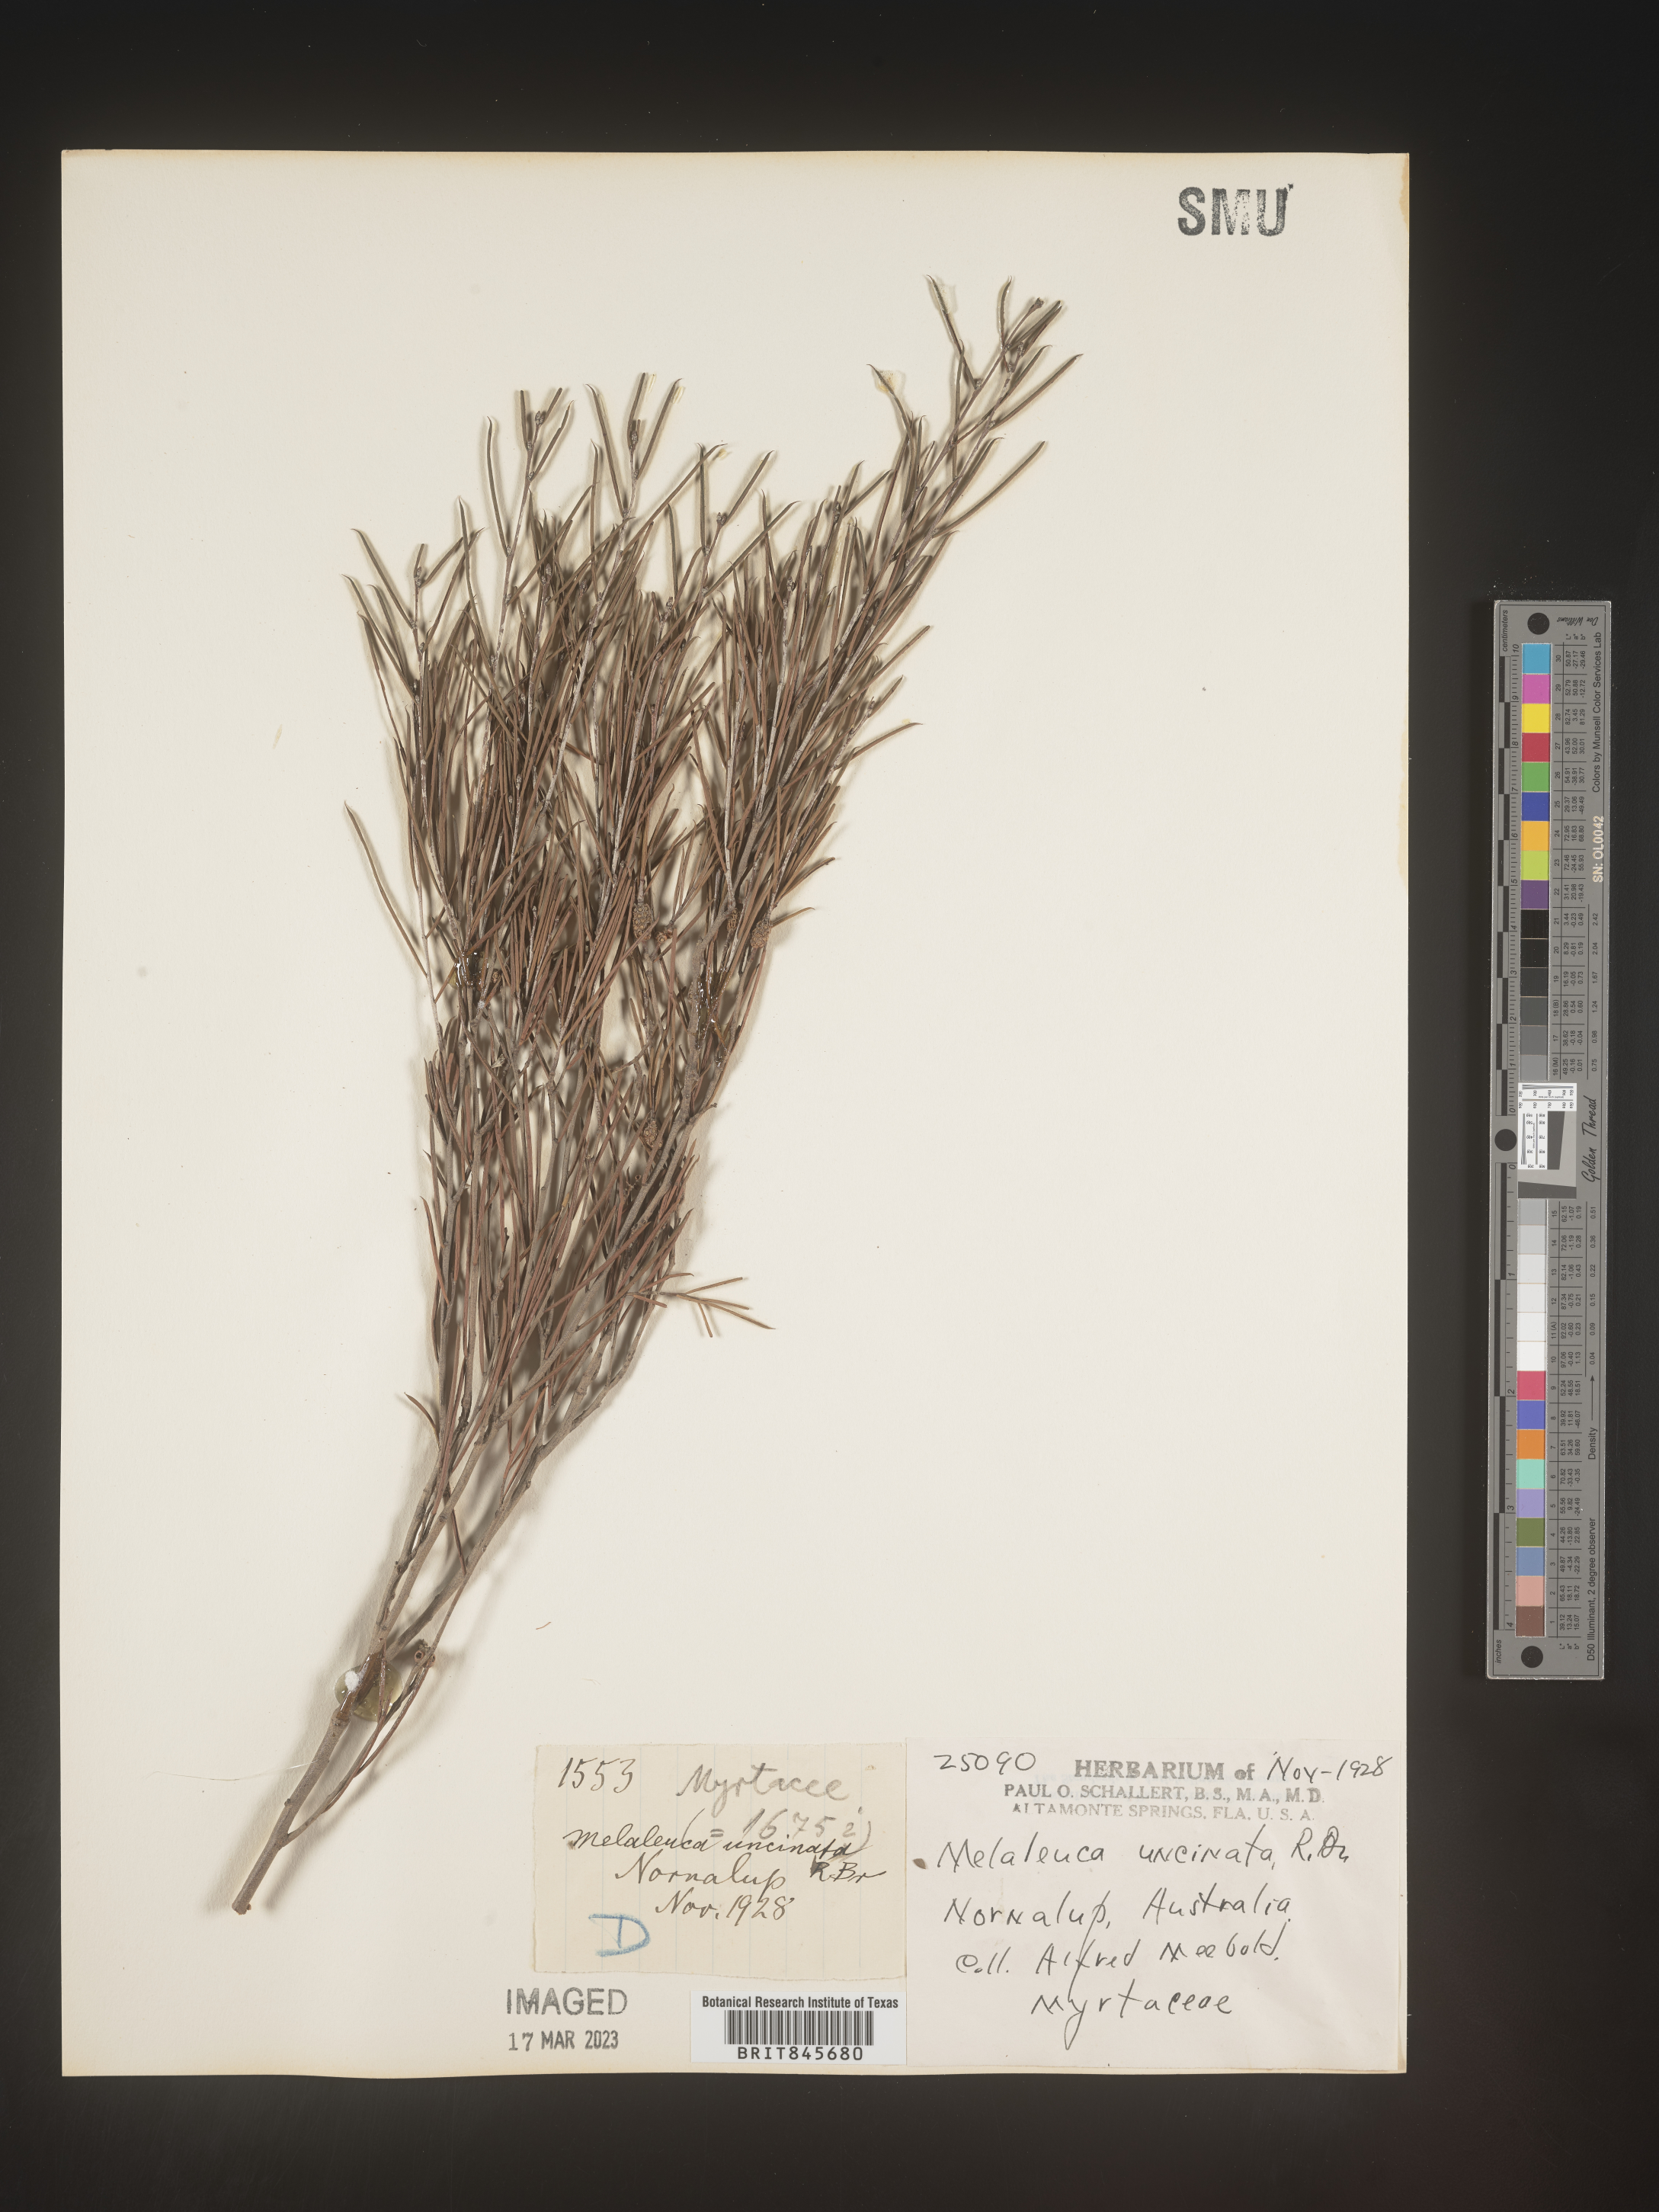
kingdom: Plantae
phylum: Tracheophyta
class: Magnoliopsida
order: Myrtales
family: Myrtaceae
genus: Melaleuca
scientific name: Melaleuca
